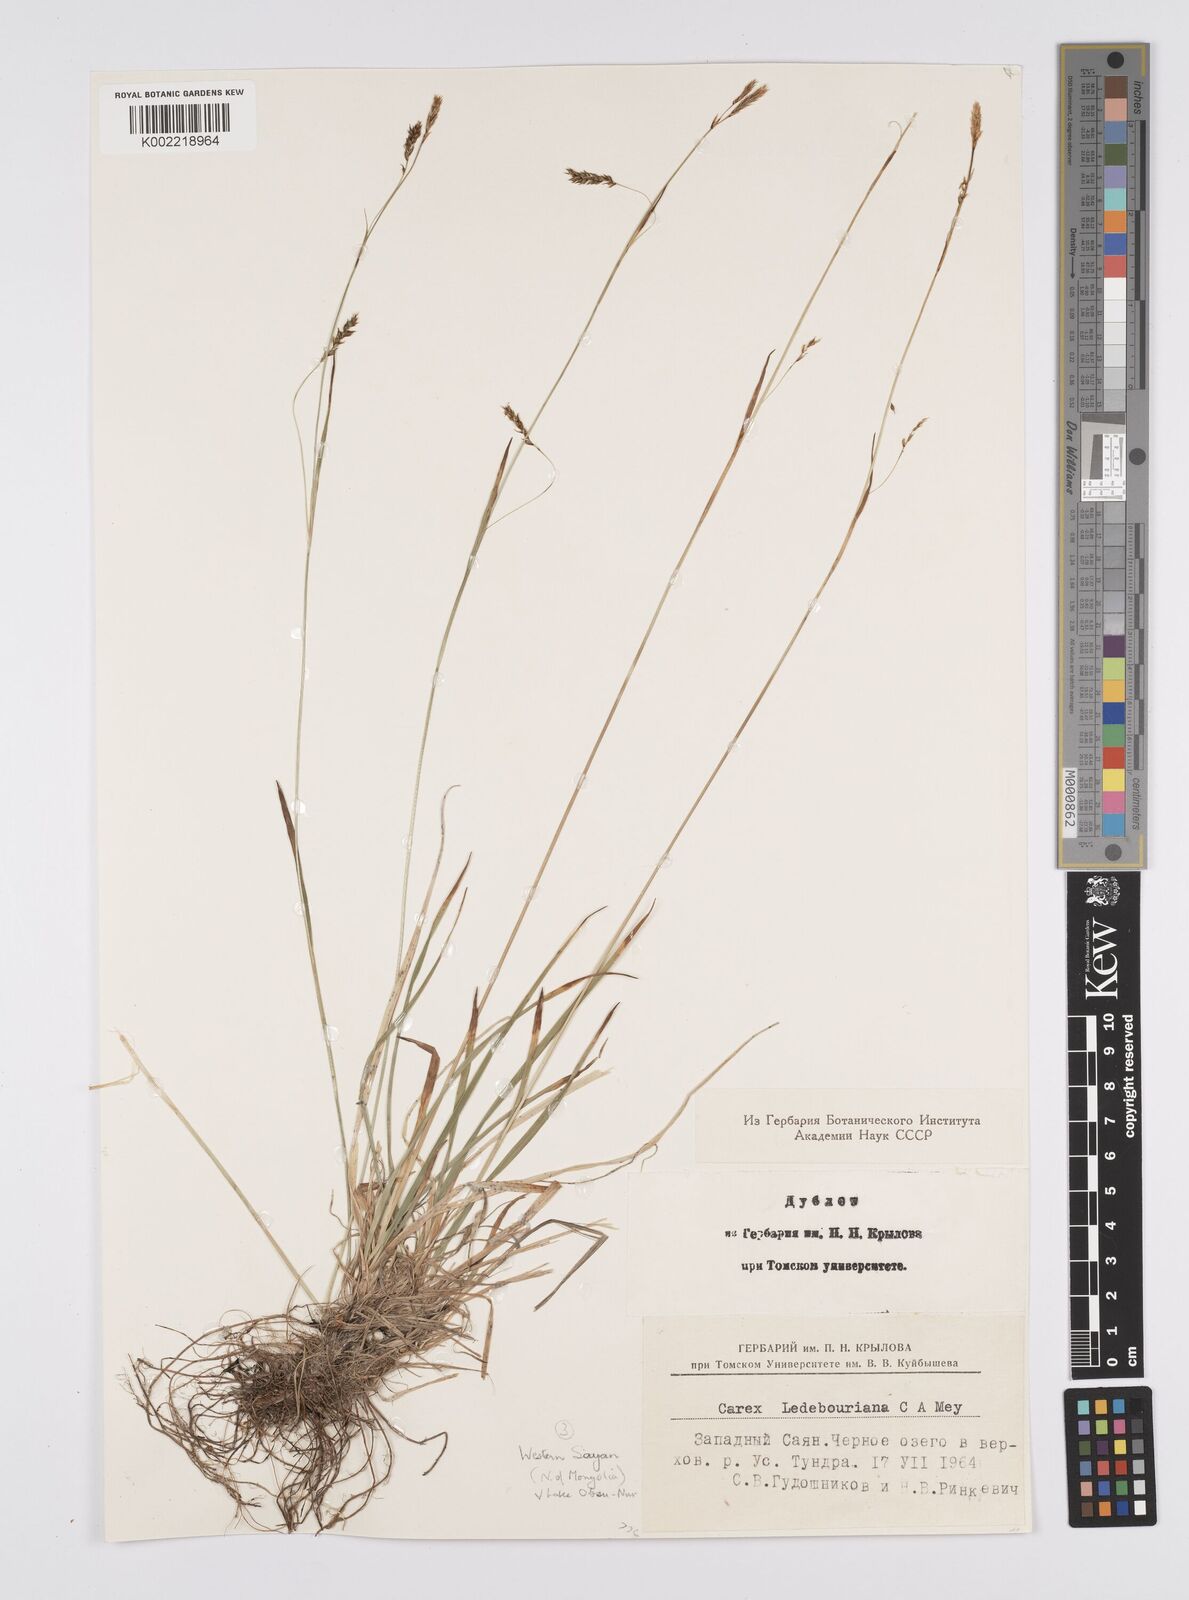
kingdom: Plantae
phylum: Tracheophyta
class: Liliopsida
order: Poales
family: Cyperaceae
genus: Carex
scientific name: Carex melanostachya
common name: Black-spiked sedge
